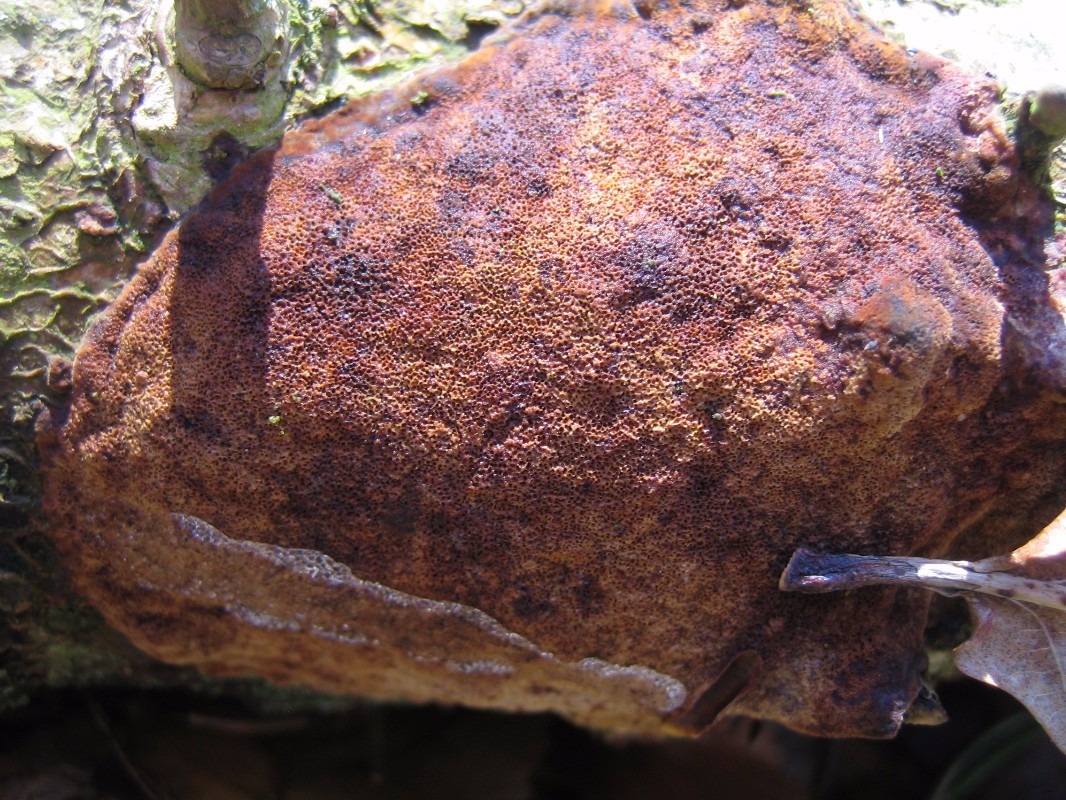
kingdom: Fungi
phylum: Basidiomycota
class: Agaricomycetes
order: Hymenochaetales
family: Hymenochaetaceae
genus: Fuscoporia
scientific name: Fuscoporia
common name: Ildporesvamp
